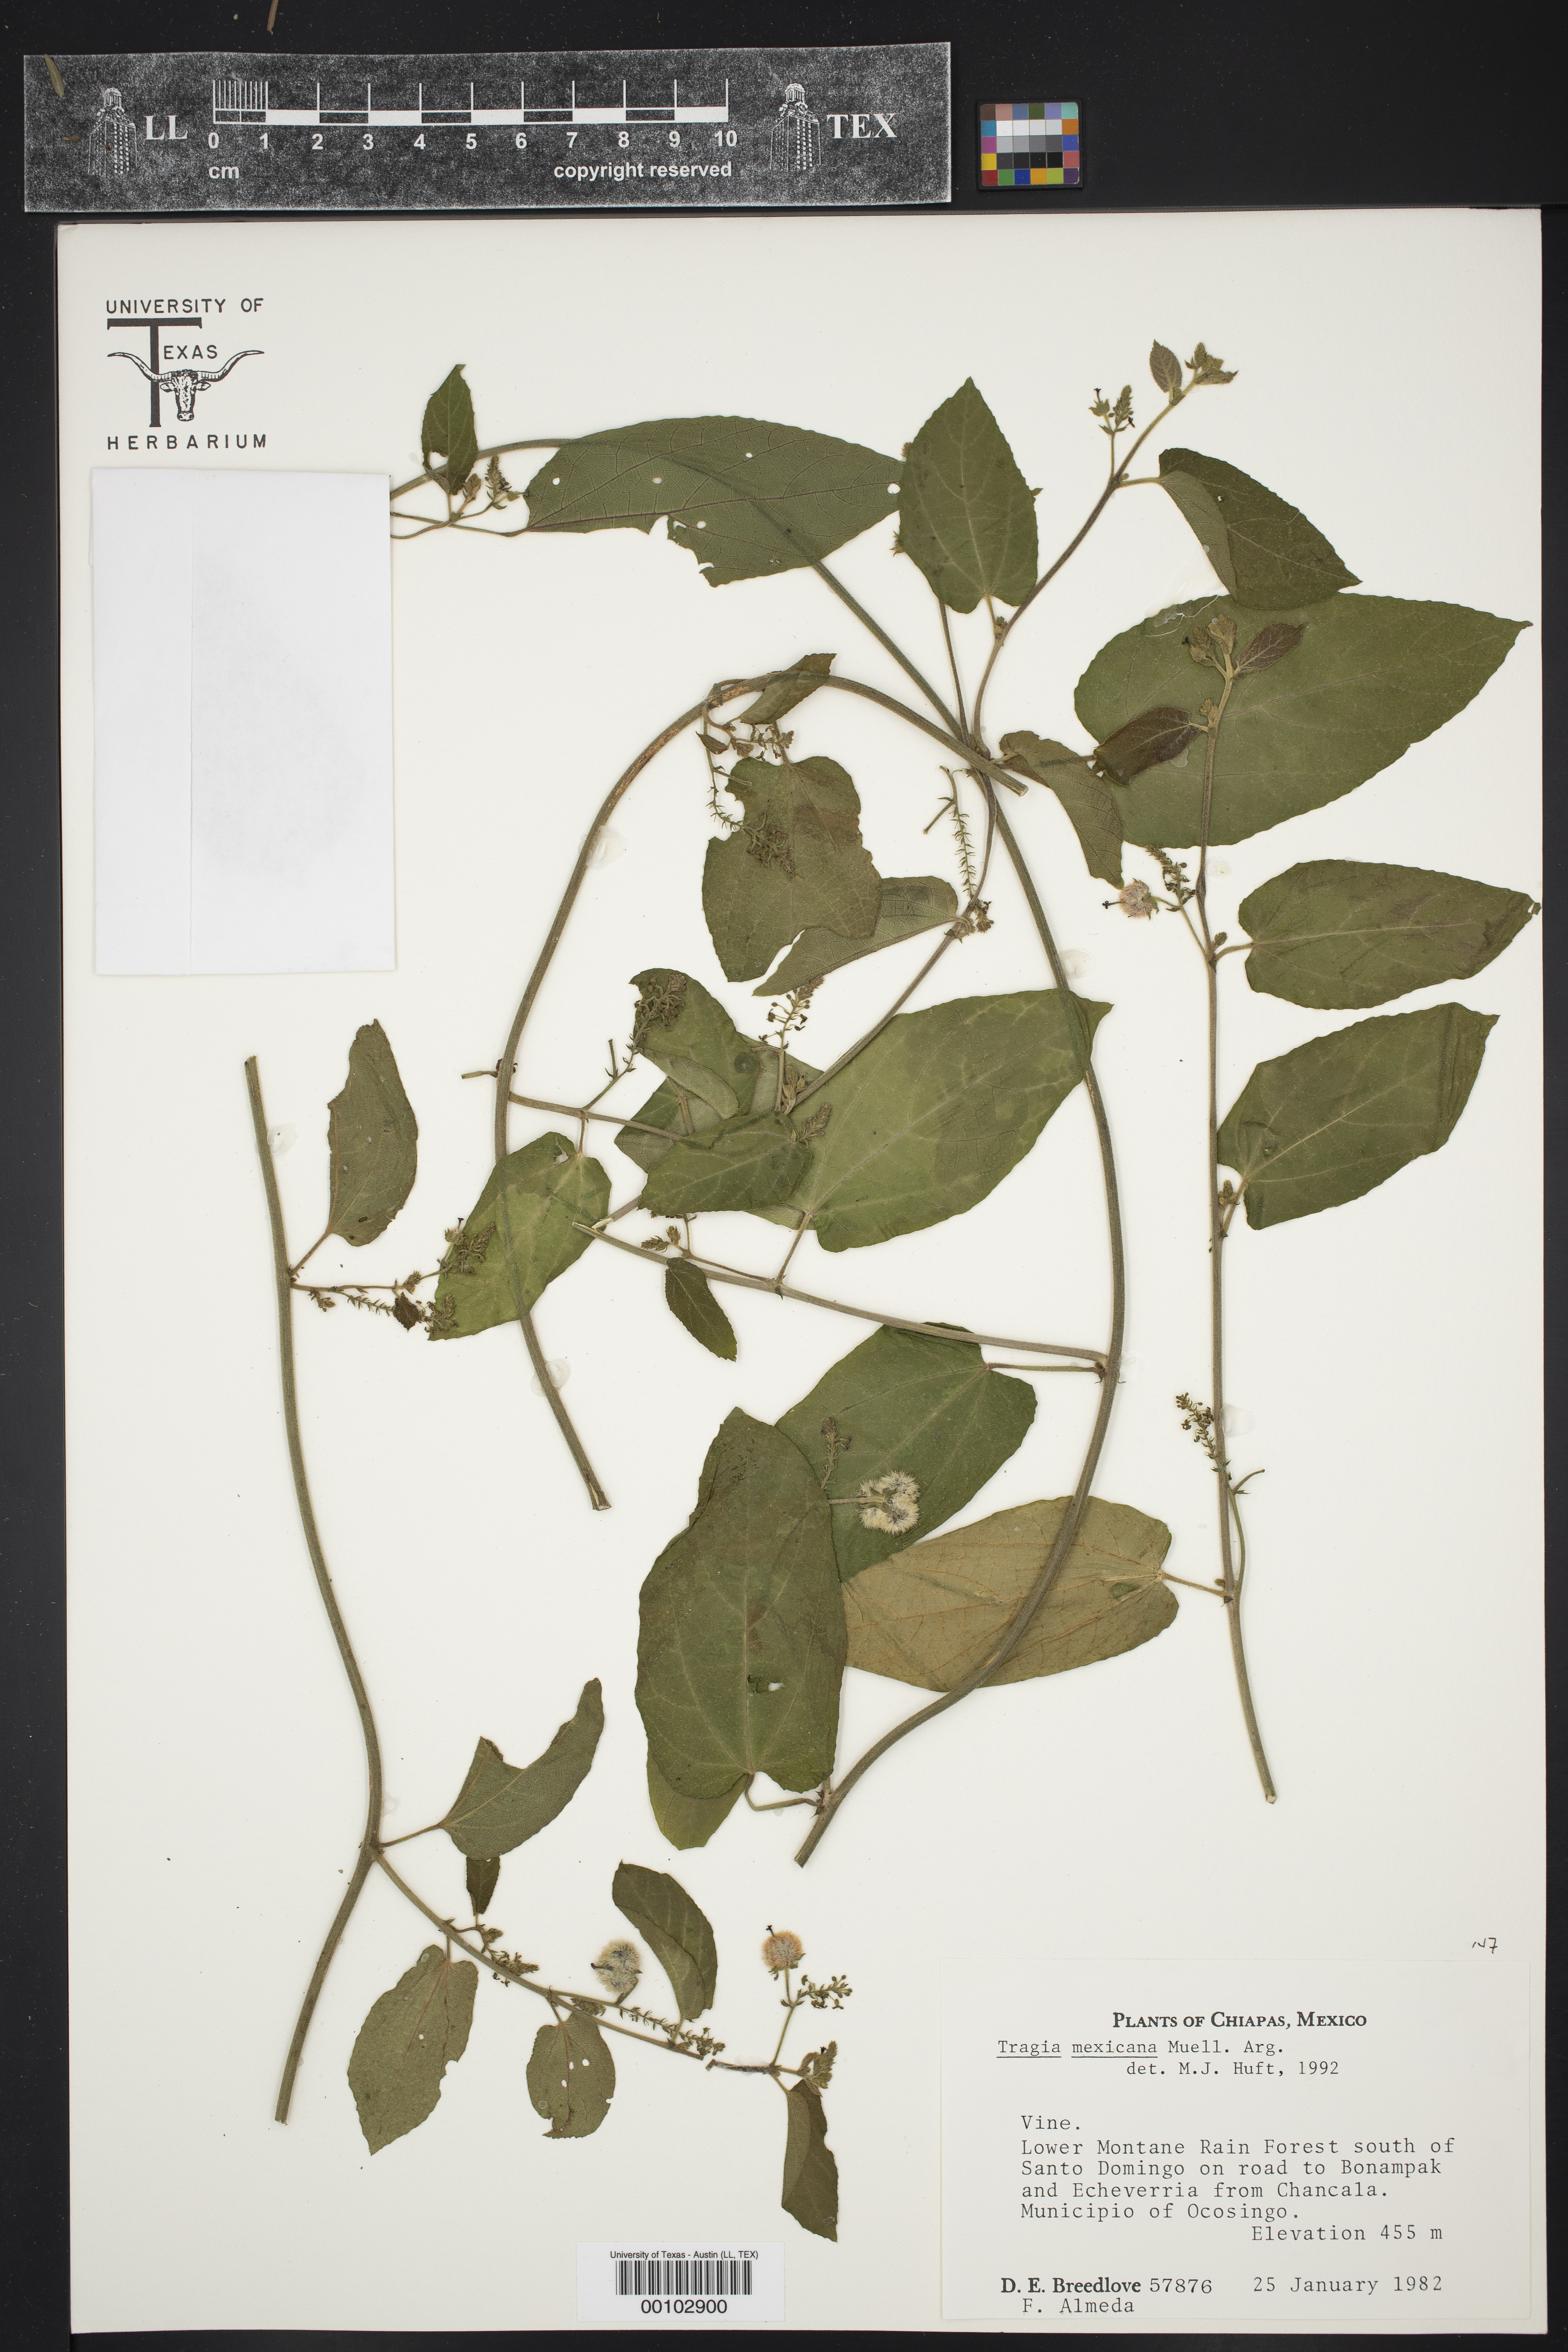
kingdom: Plantae
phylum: Tracheophyta
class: Magnoliopsida
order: Malpighiales
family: Euphorbiaceae
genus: Tragia
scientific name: Tragia mexicana
